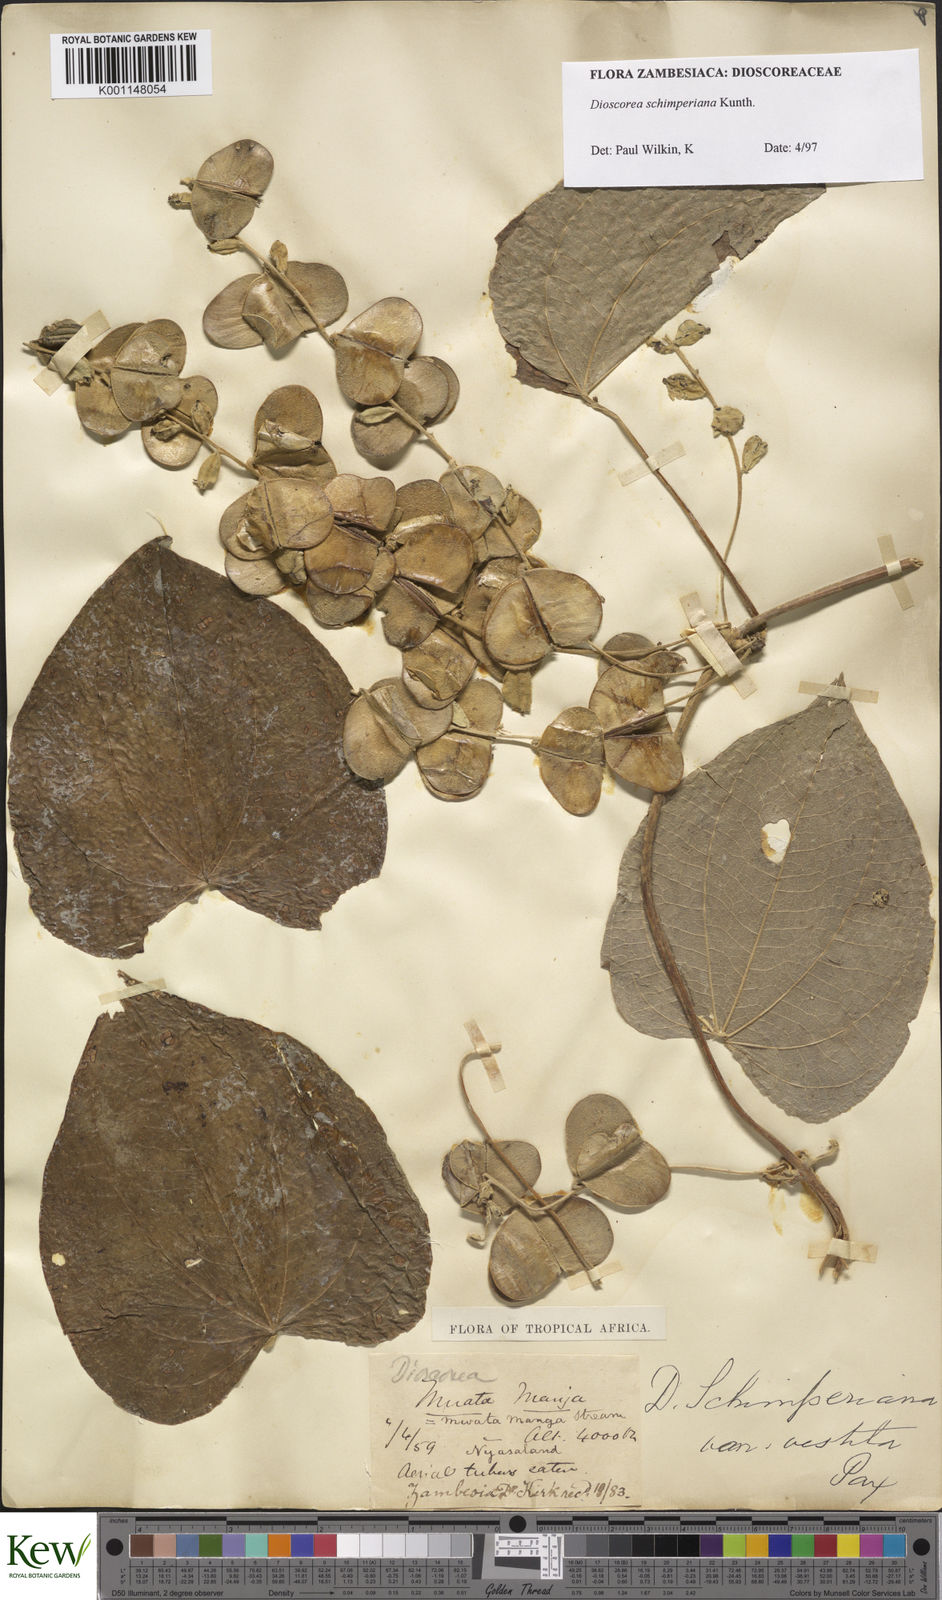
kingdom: Plantae
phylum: Tracheophyta
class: Liliopsida
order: Dioscoreales
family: Dioscoreaceae
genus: Dioscorea
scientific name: Dioscorea schimperiana
